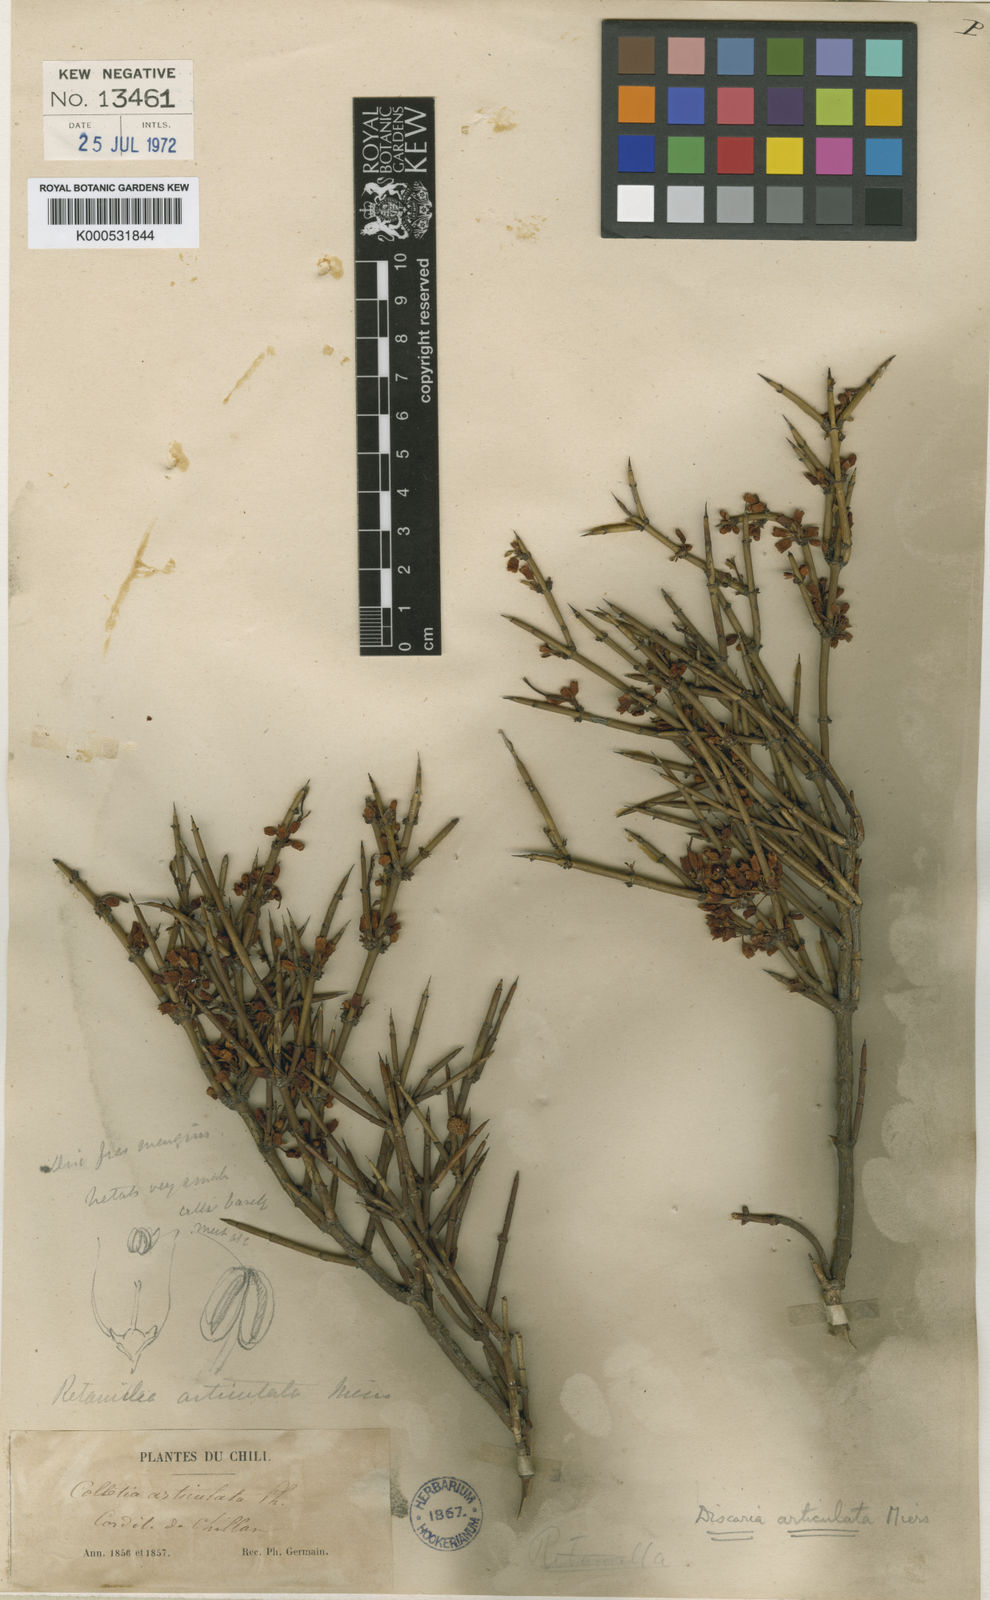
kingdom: Plantae
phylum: Tracheophyta
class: Magnoliopsida
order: Rosales
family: Rhamnaceae
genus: Discaria
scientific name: Discaria articulata
